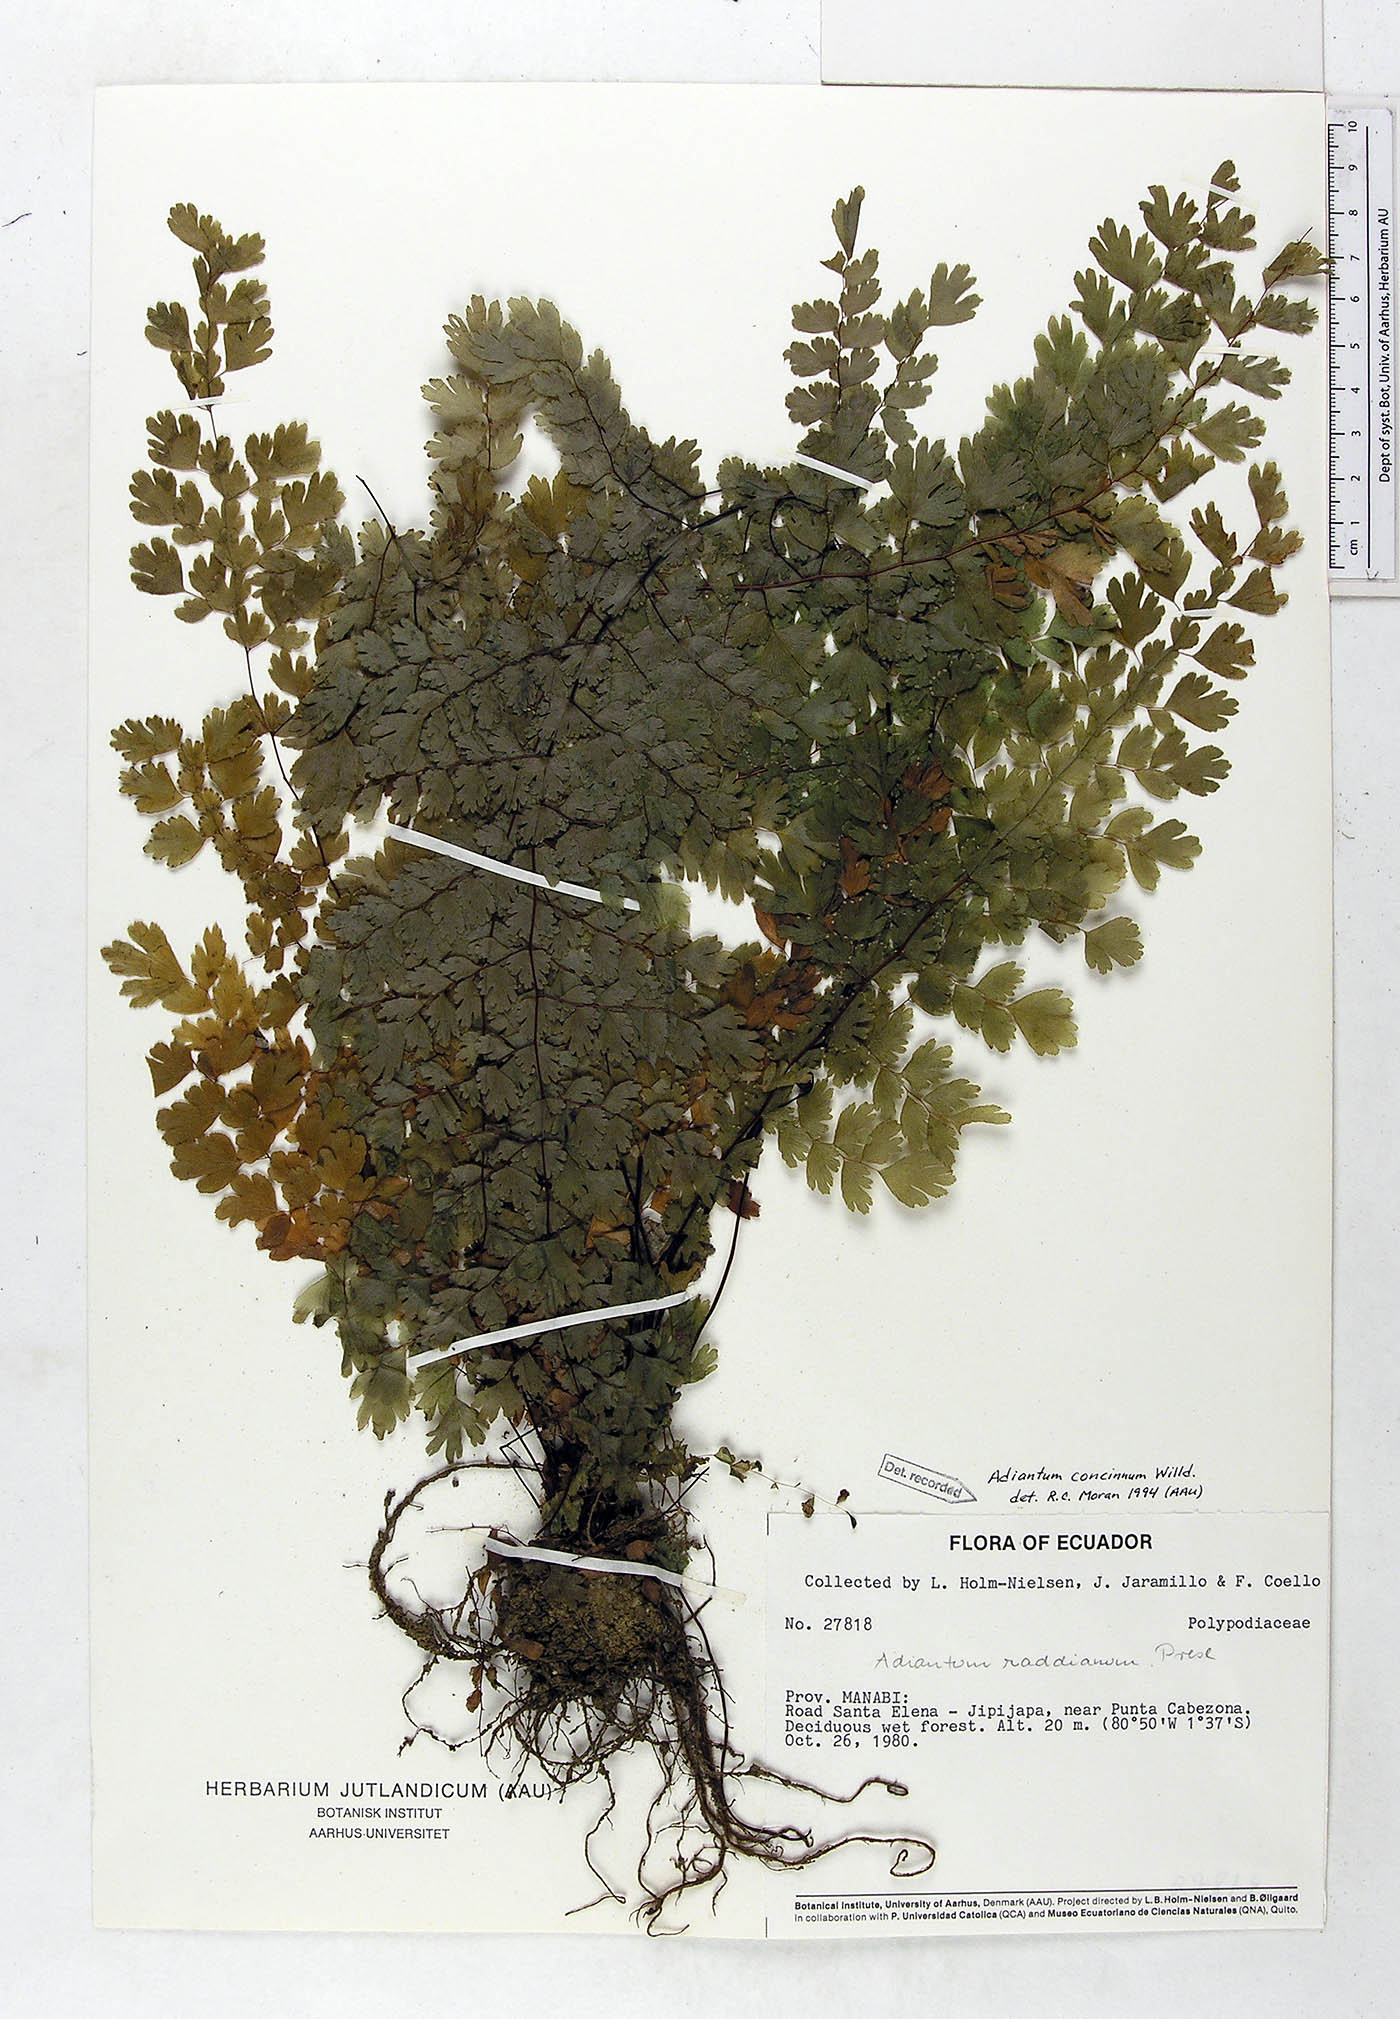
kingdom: Plantae
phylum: Tracheophyta
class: Polypodiopsida
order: Polypodiales
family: Pteridaceae
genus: Adiantum
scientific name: Adiantum concinnum
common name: Brittle maidenhair fern
